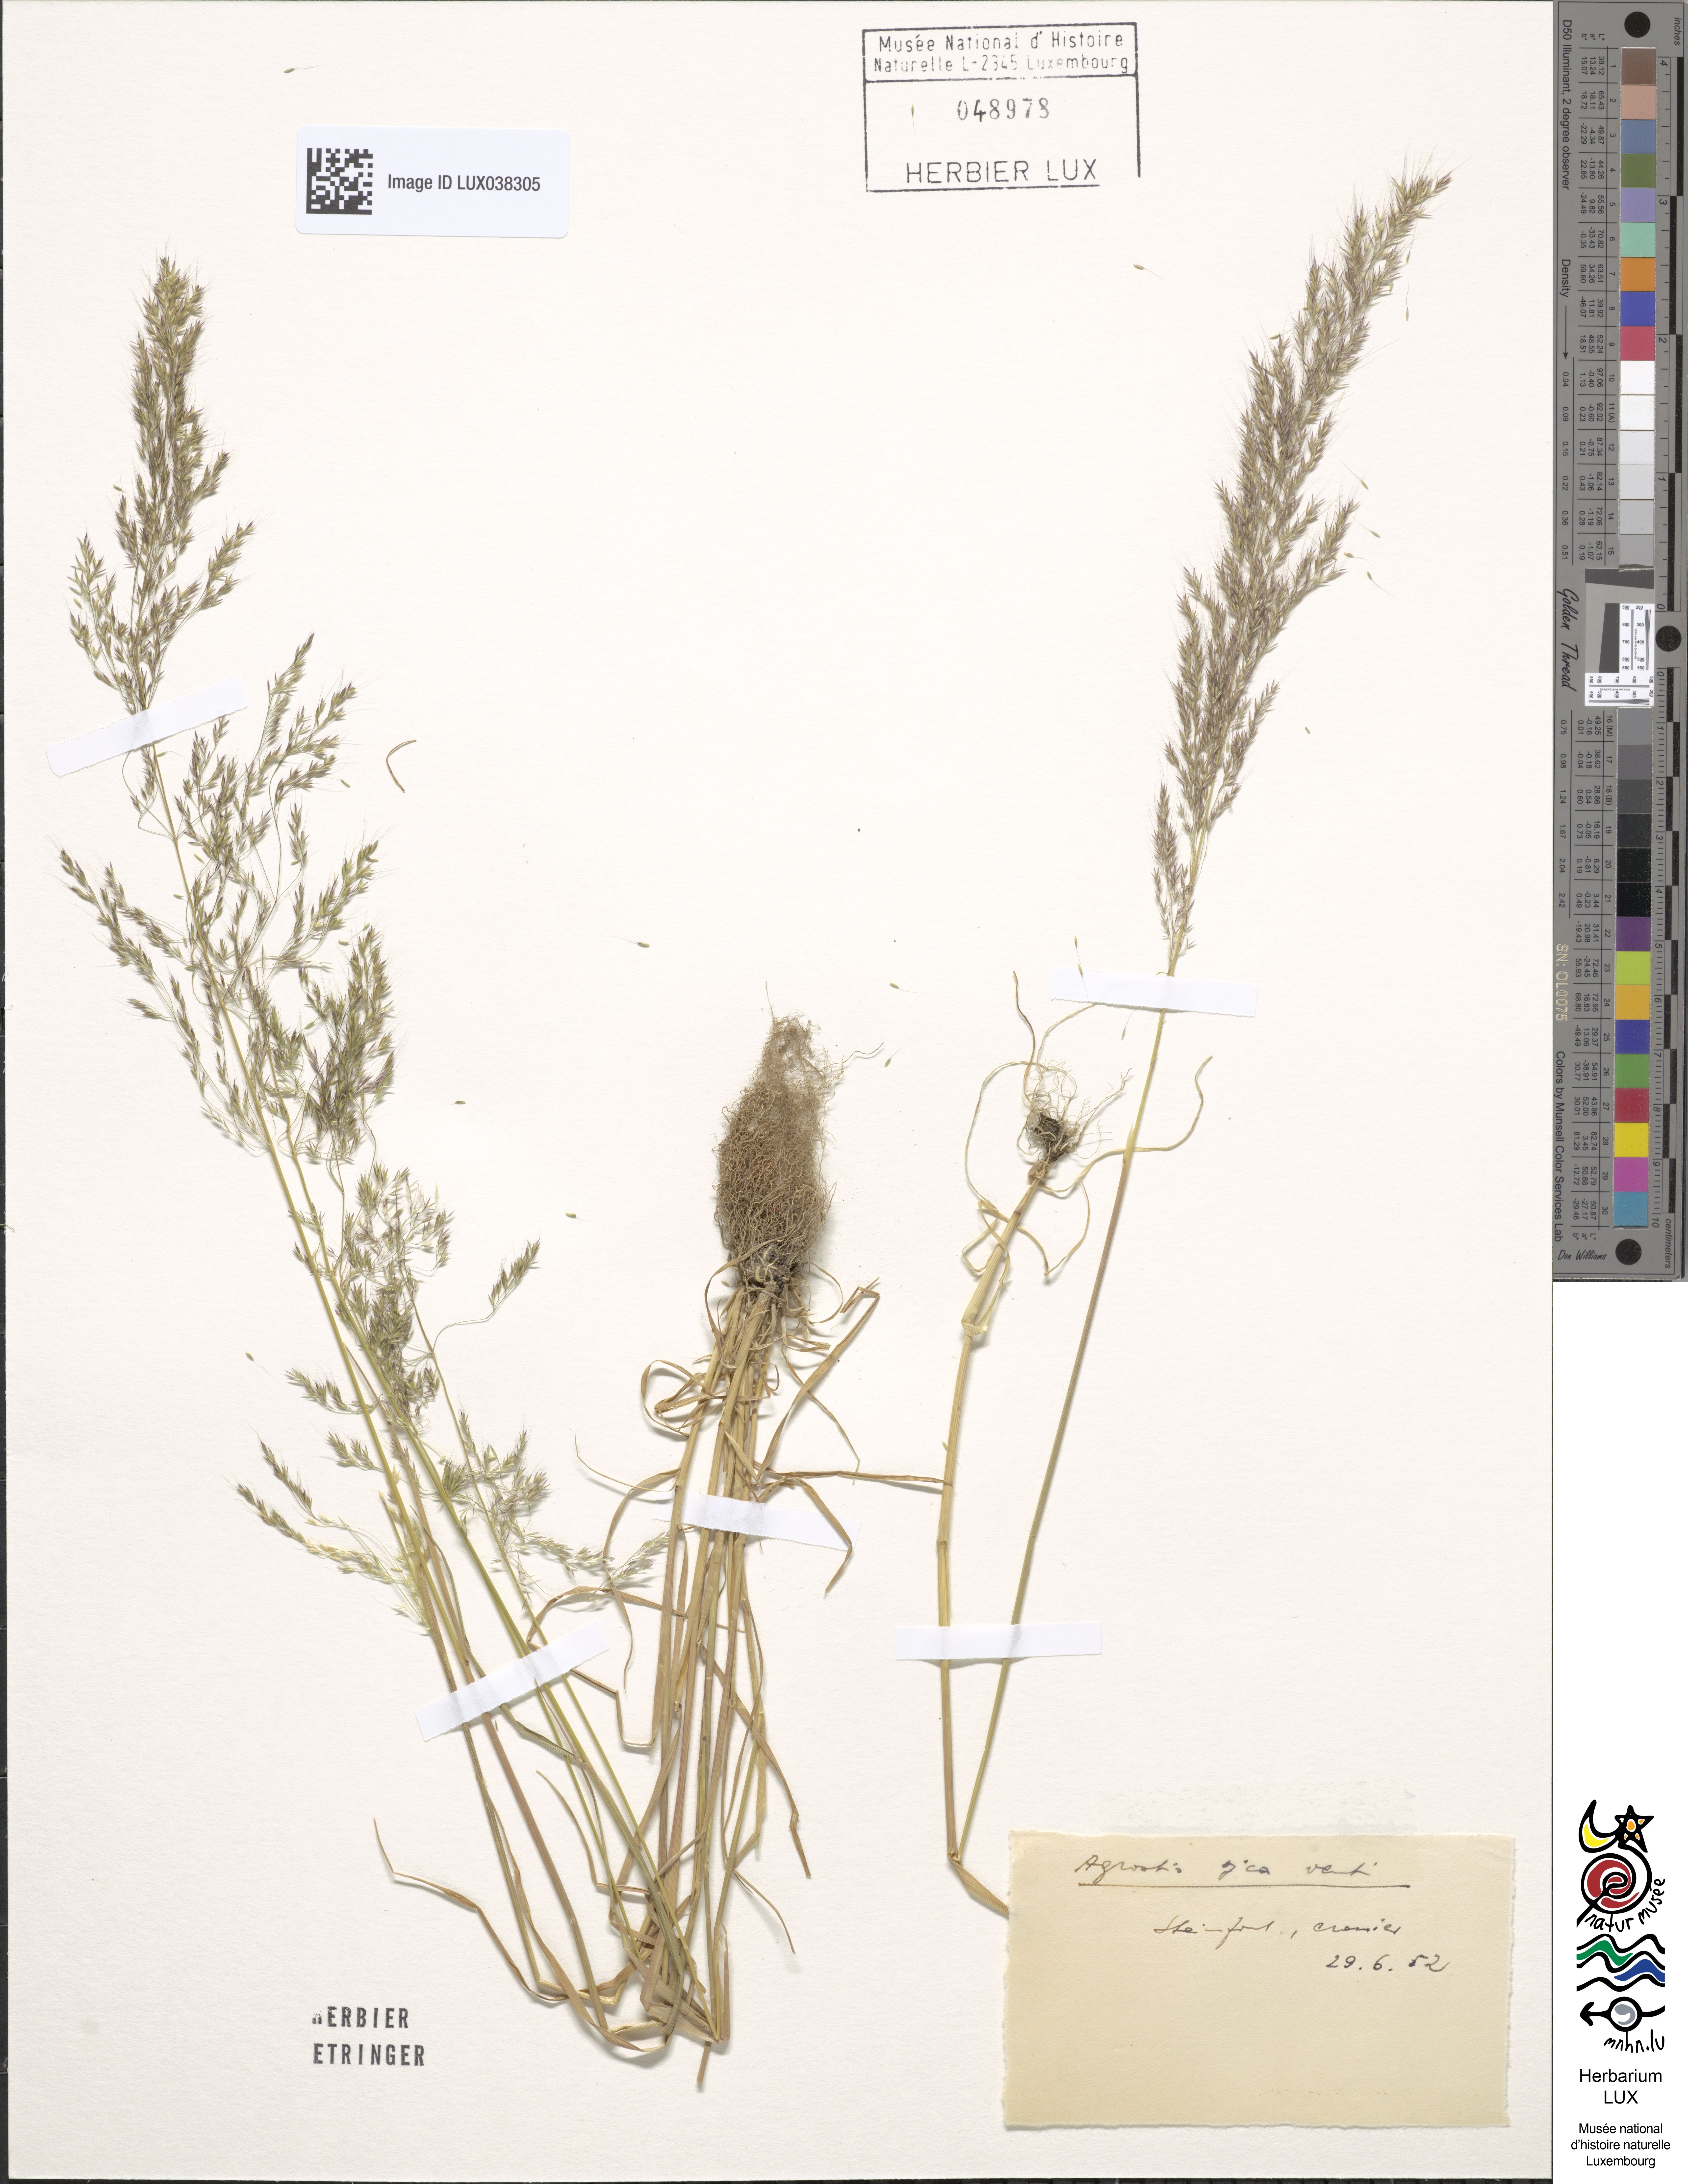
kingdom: Plantae
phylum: Tracheophyta
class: Liliopsida
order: Poales
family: Poaceae
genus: Apera
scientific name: Apera spica-venti
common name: Loose silky-bent
